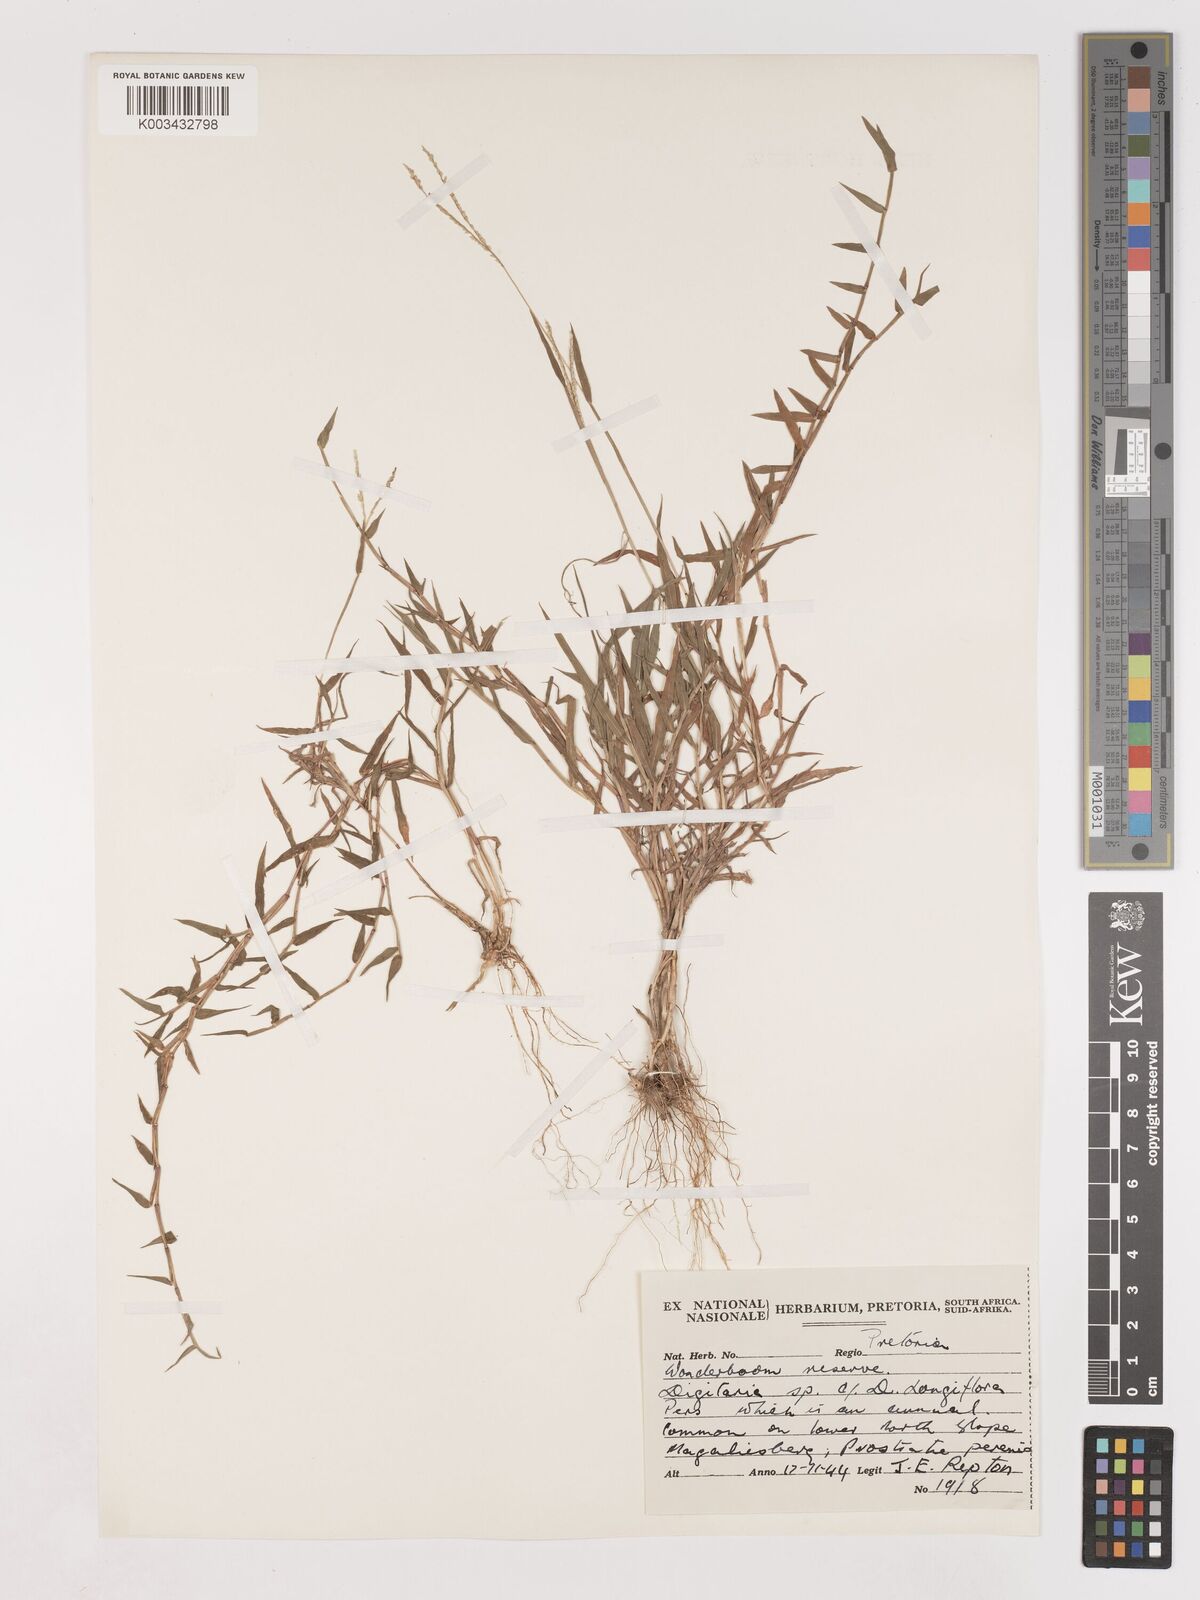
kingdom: Plantae
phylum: Tracheophyta
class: Liliopsida
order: Poales
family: Poaceae
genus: Digitaria
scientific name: Digitaria longiflora
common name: Wire crabgrass
